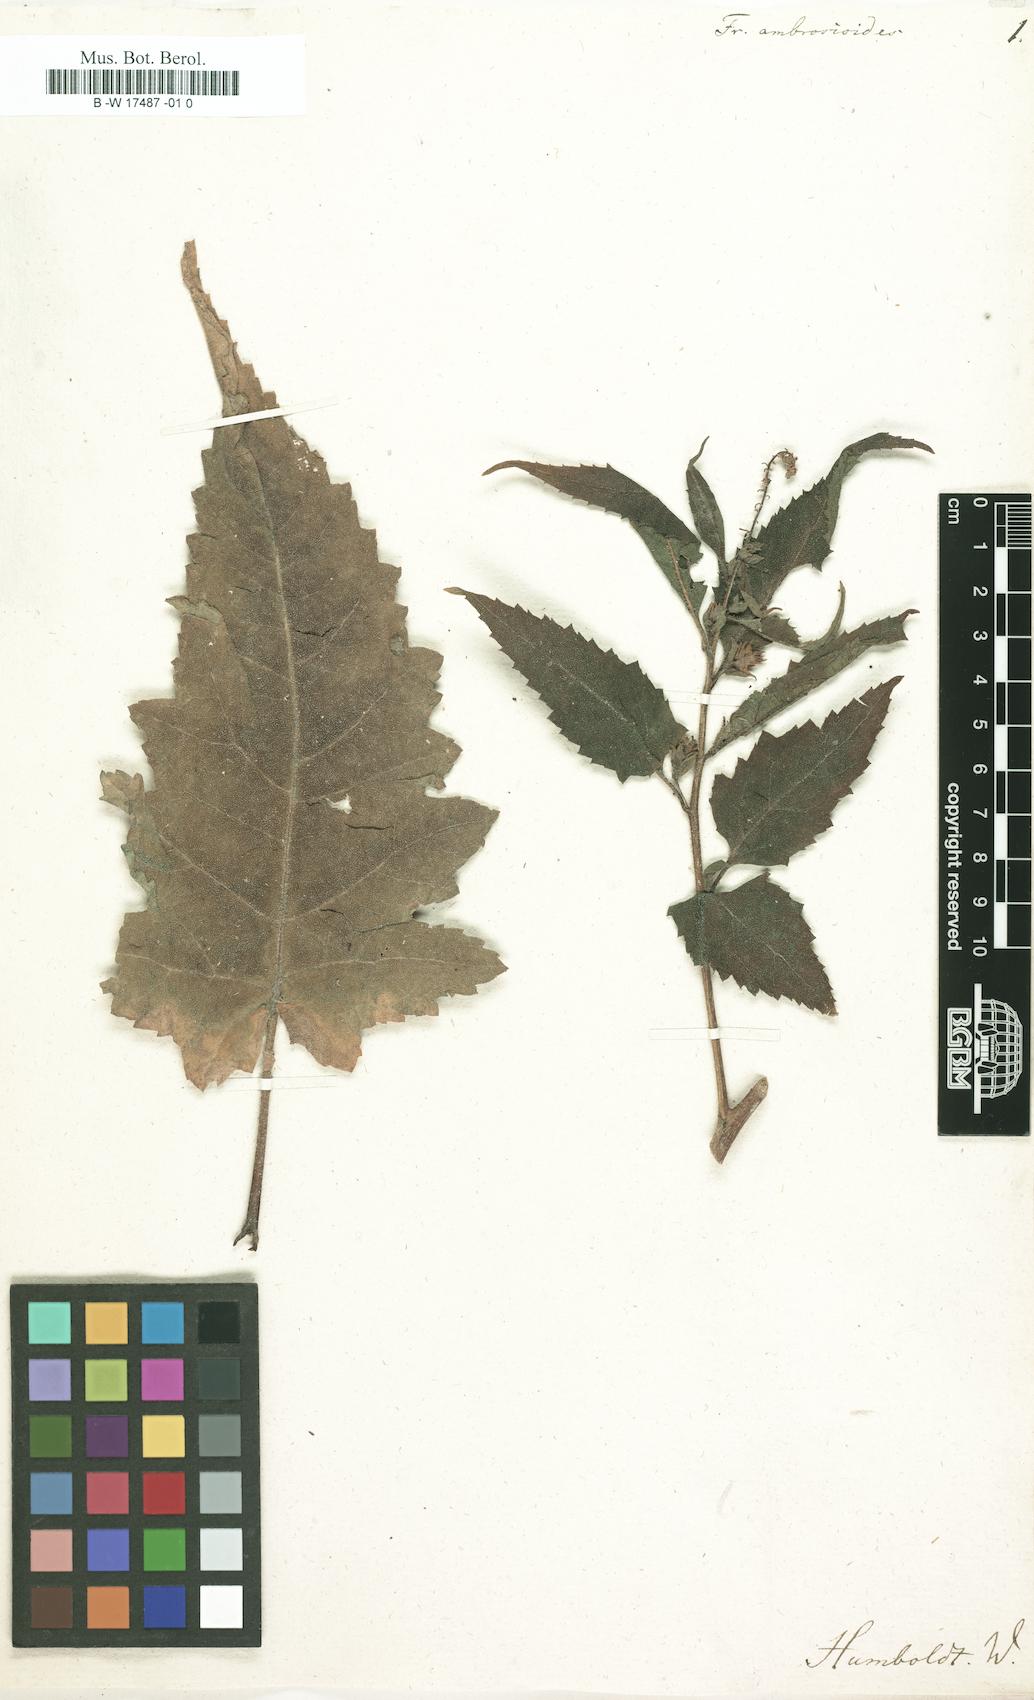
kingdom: Plantae
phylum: Tracheophyta
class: Magnoliopsida
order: Asterales
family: Asteraceae
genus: Ambrosia
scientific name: Ambrosia ambrosioides
